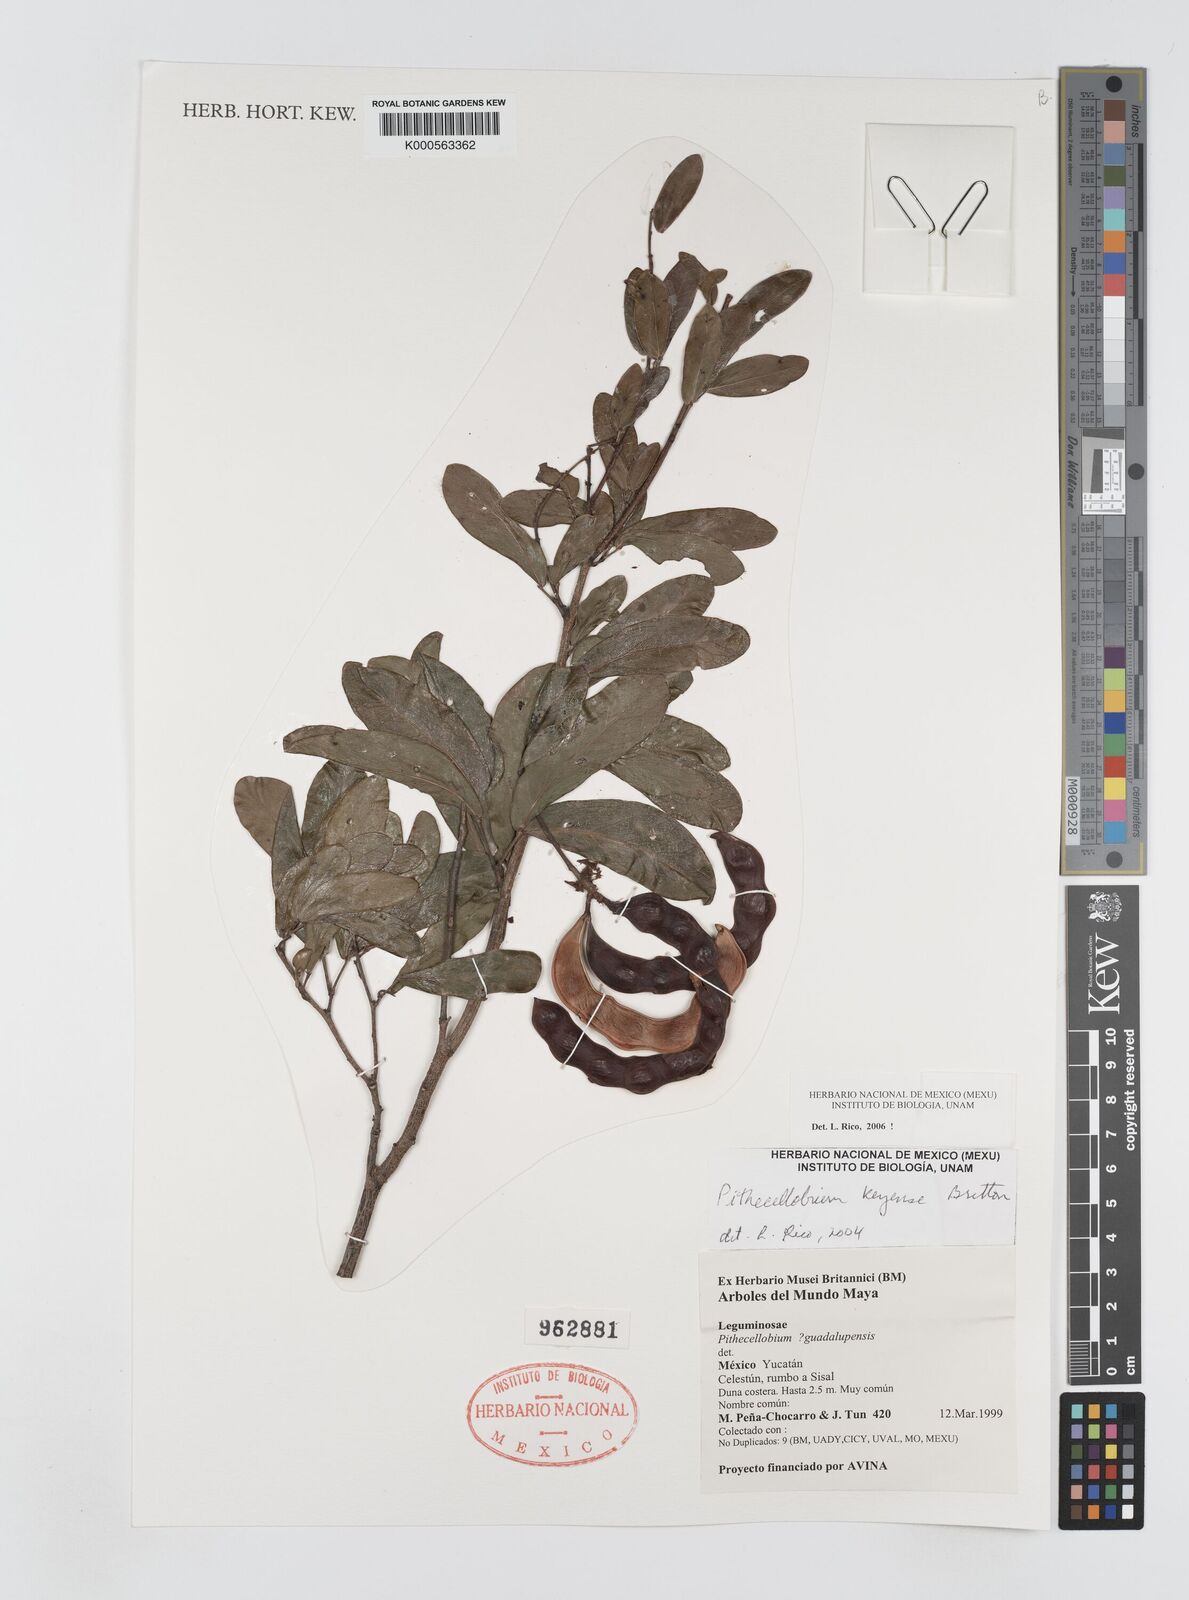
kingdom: Plantae
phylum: Tracheophyta
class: Magnoliopsida
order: Fabales
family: Fabaceae
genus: Pithecellobium
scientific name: Pithecellobium
